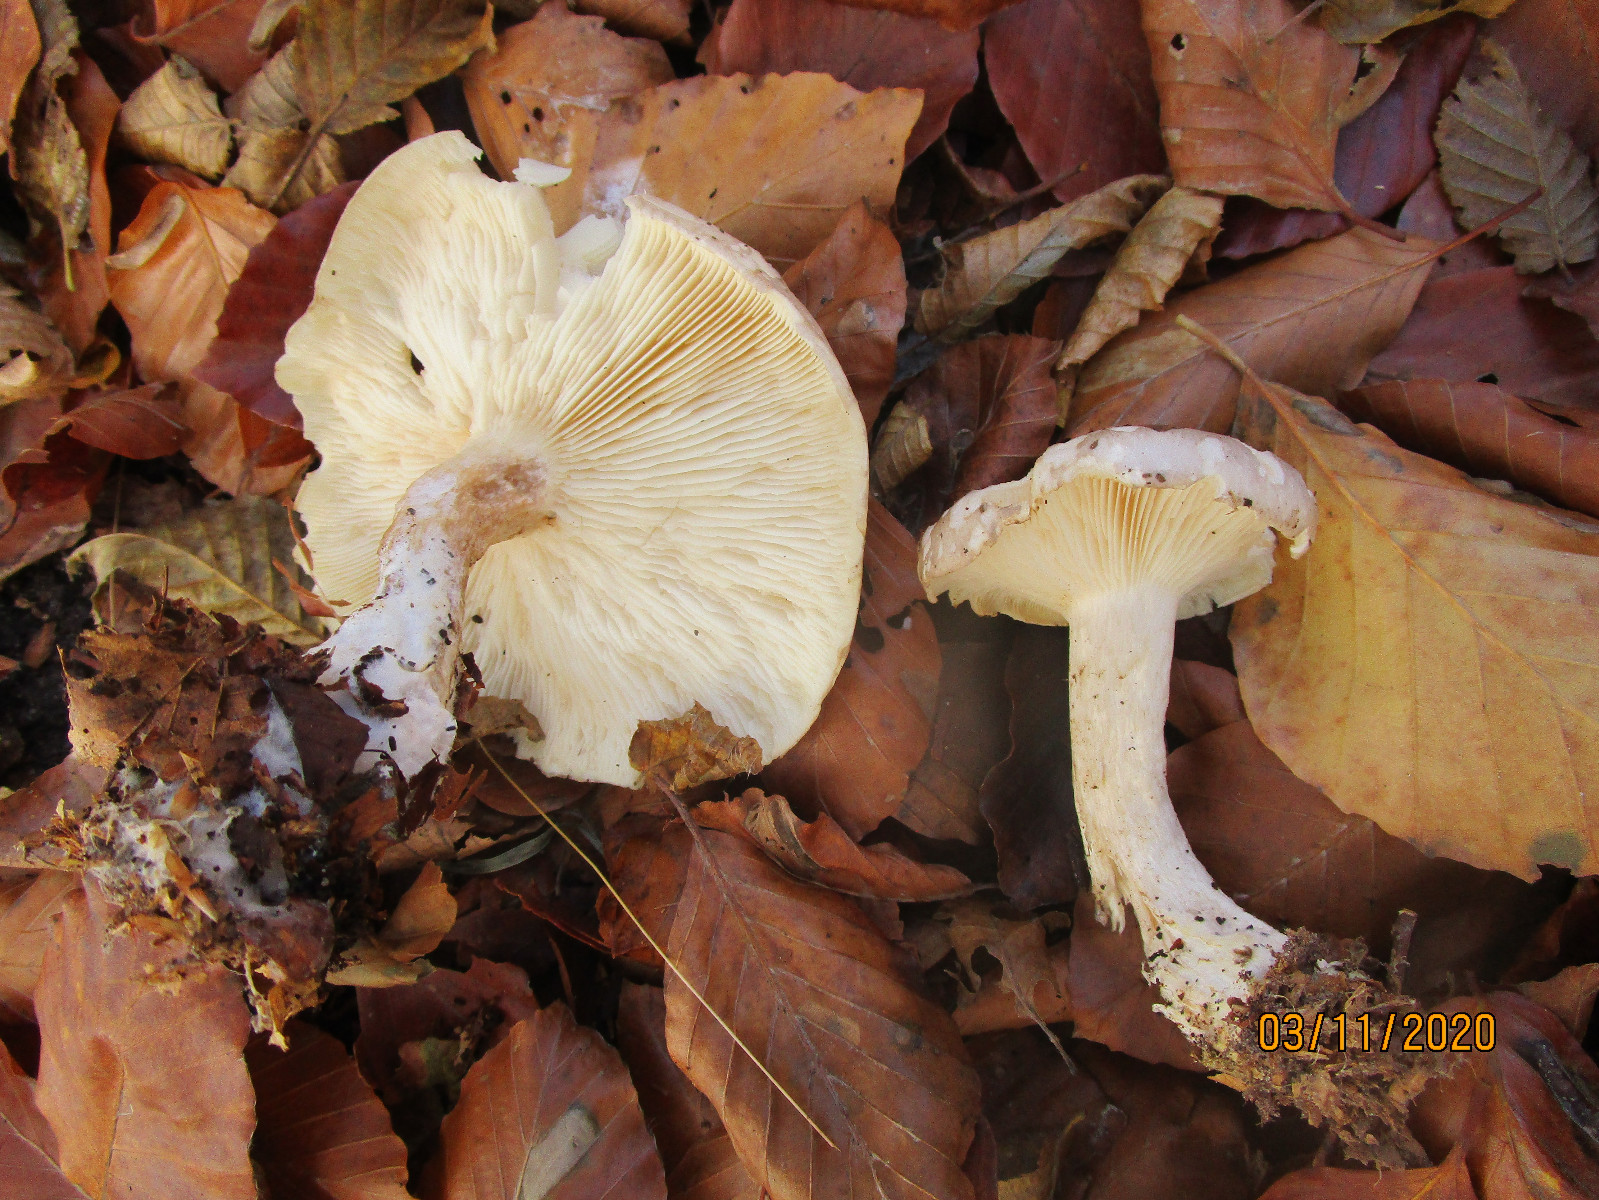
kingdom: Fungi
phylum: Basidiomycota
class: Agaricomycetes
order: Agaricales
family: Tricholomataceae
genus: Clitocybe
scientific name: Clitocybe nebularis
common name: tåge-tragthat
